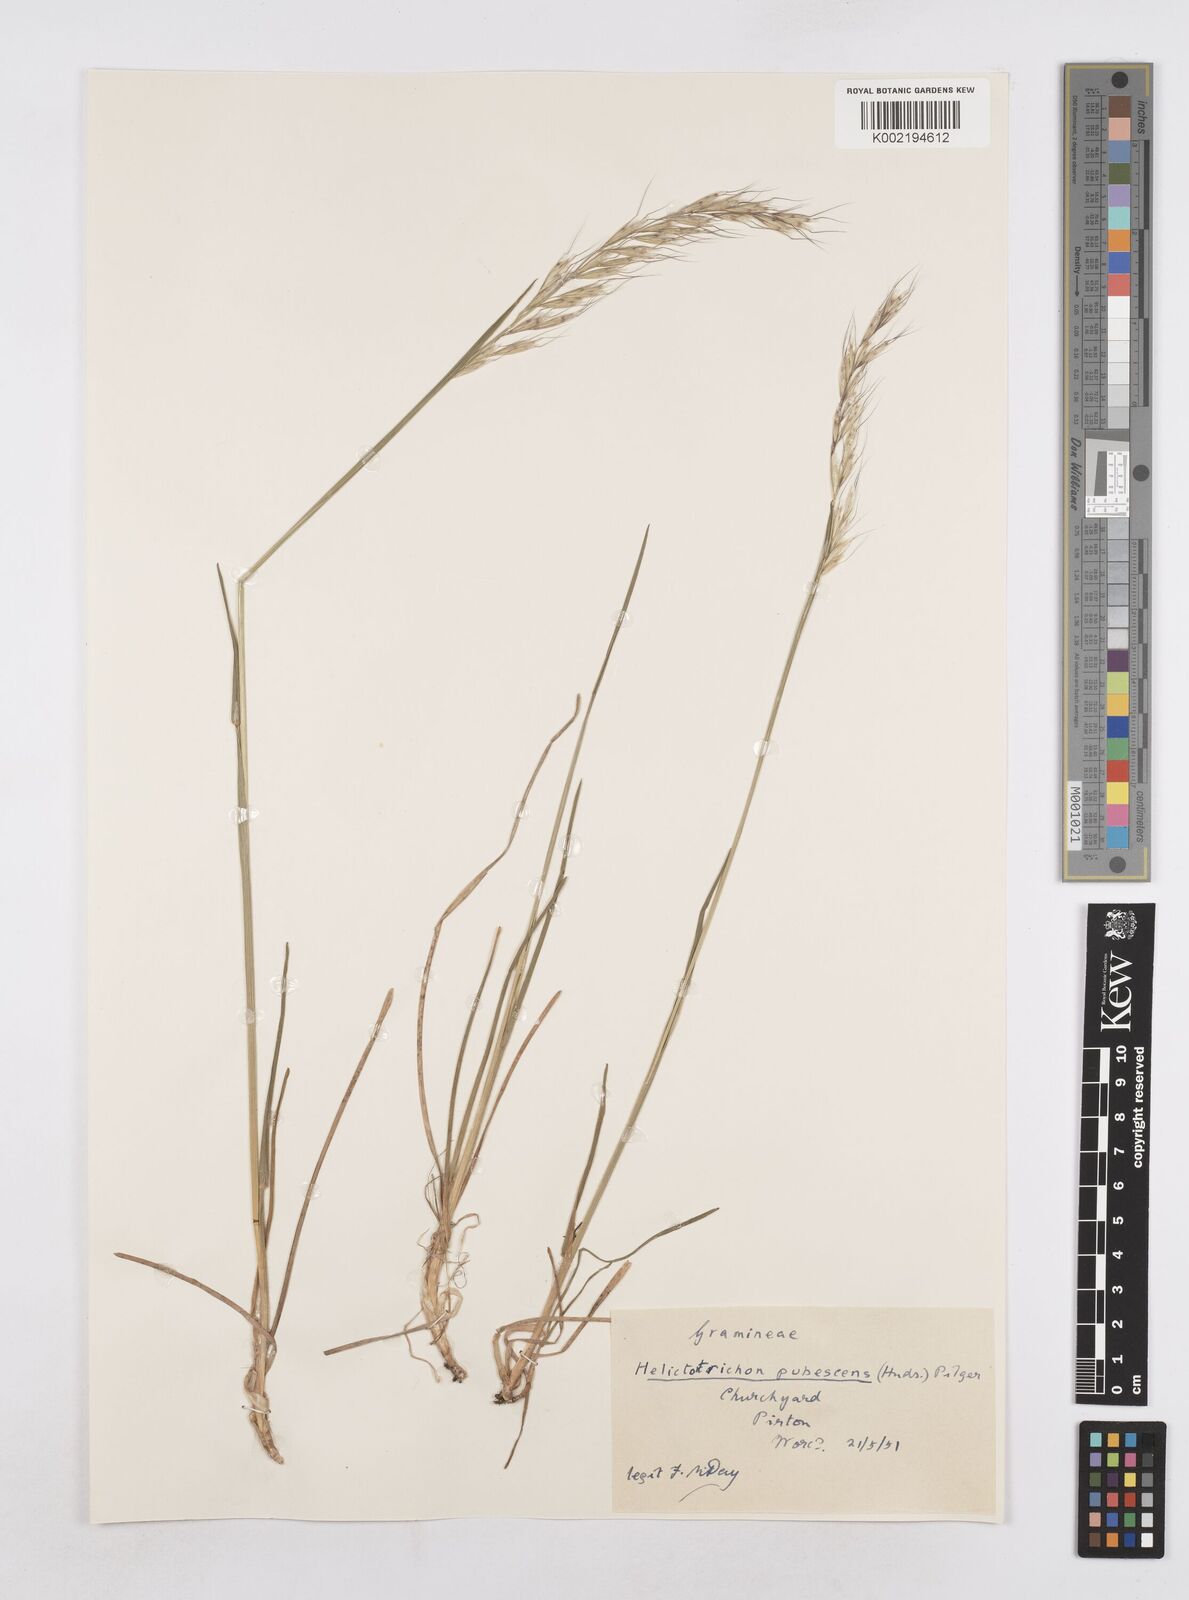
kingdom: Plantae
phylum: Tracheophyta
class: Liliopsida
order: Poales
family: Poaceae
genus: Avenula
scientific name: Avenula pubescens
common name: Downy alpine oatgrass
